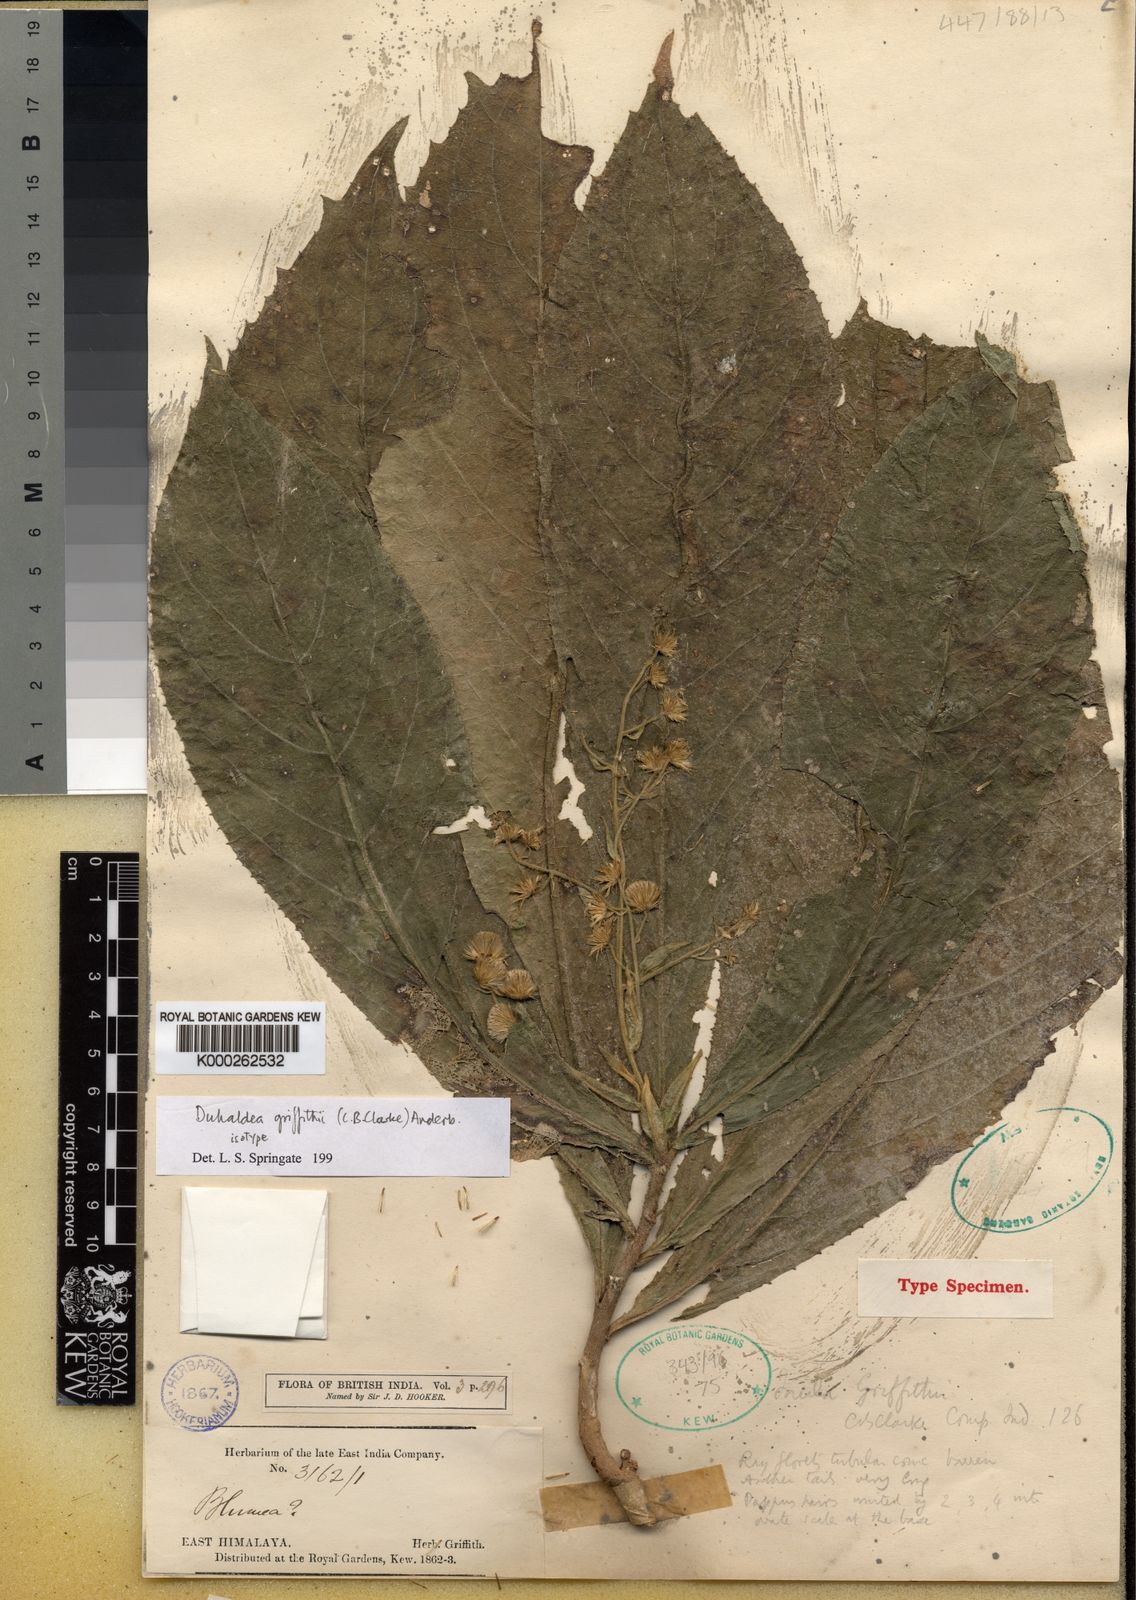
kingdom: Plantae
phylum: Tracheophyta
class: Magnoliopsida
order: Asterales
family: Asteraceae
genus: Duhaldea
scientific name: Duhaldea griffithii
